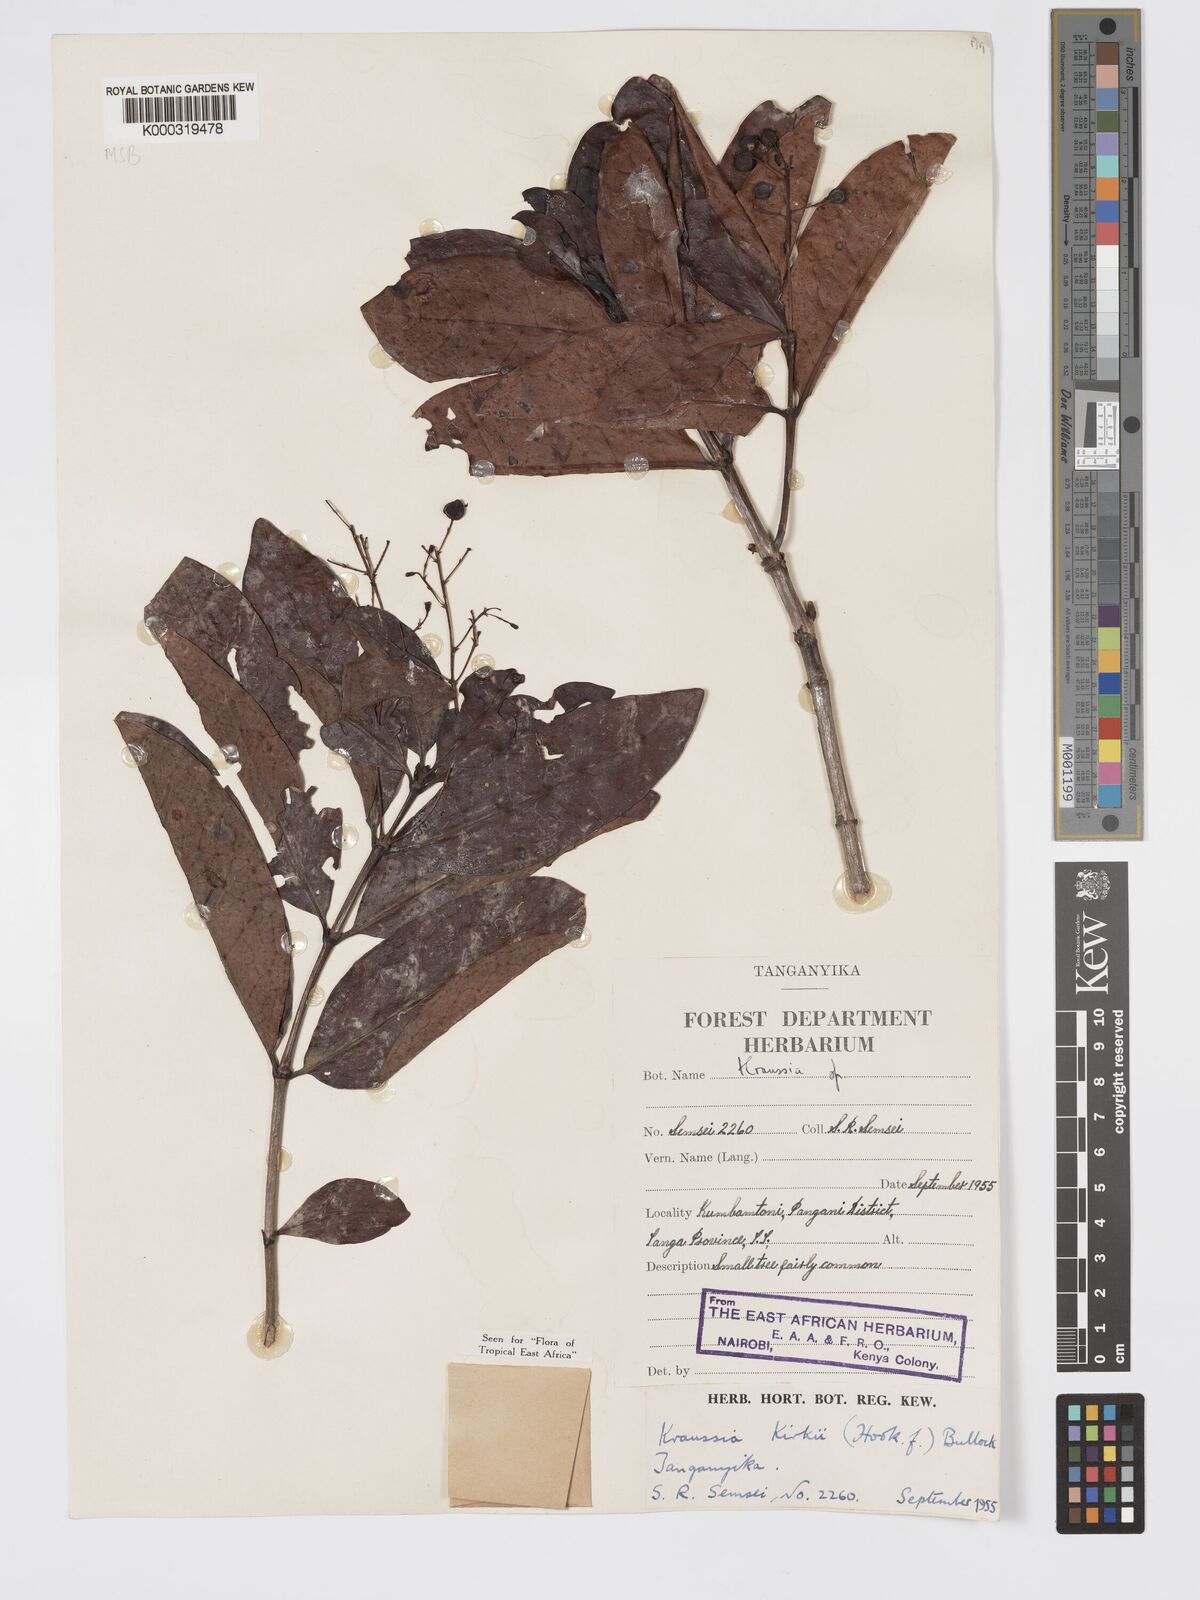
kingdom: Plantae
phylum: Tracheophyta
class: Magnoliopsida
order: Gentianales
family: Rubiaceae
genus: Kraussia
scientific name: Kraussia kirkii
